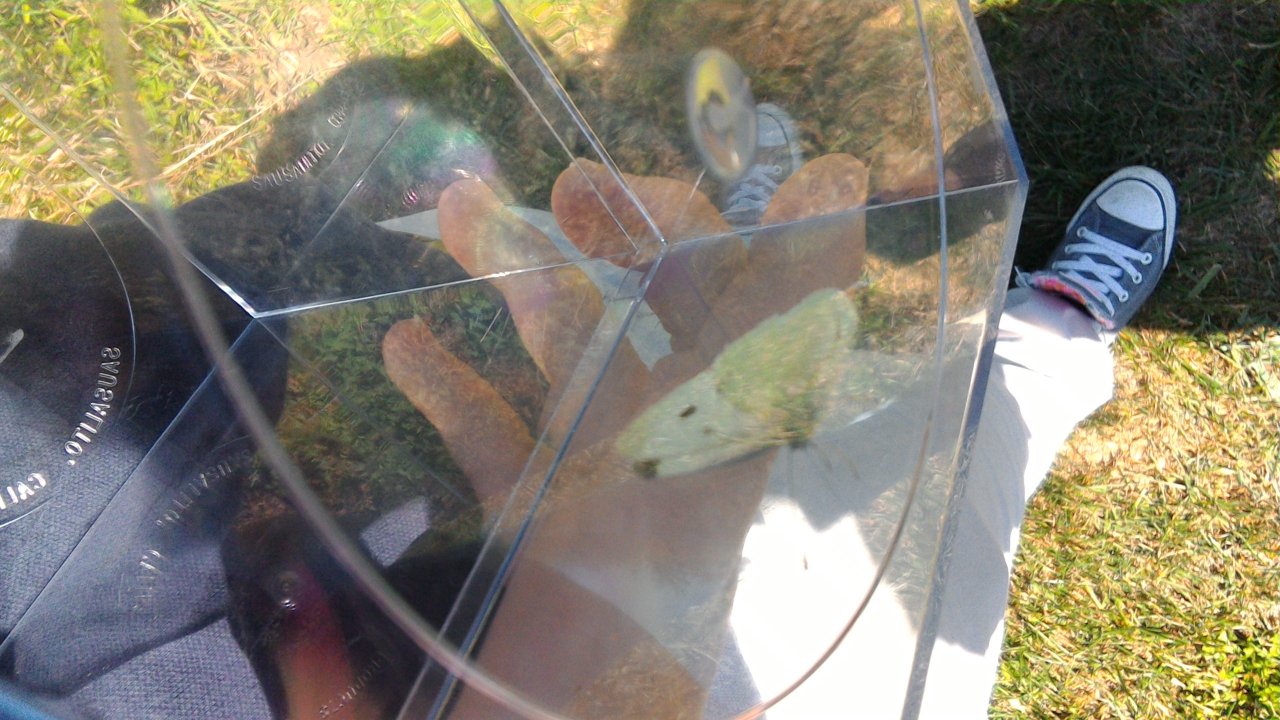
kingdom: Animalia
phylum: Arthropoda
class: Insecta
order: Lepidoptera
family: Pieridae
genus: Pieris
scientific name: Pieris rapae
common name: Cabbage White
